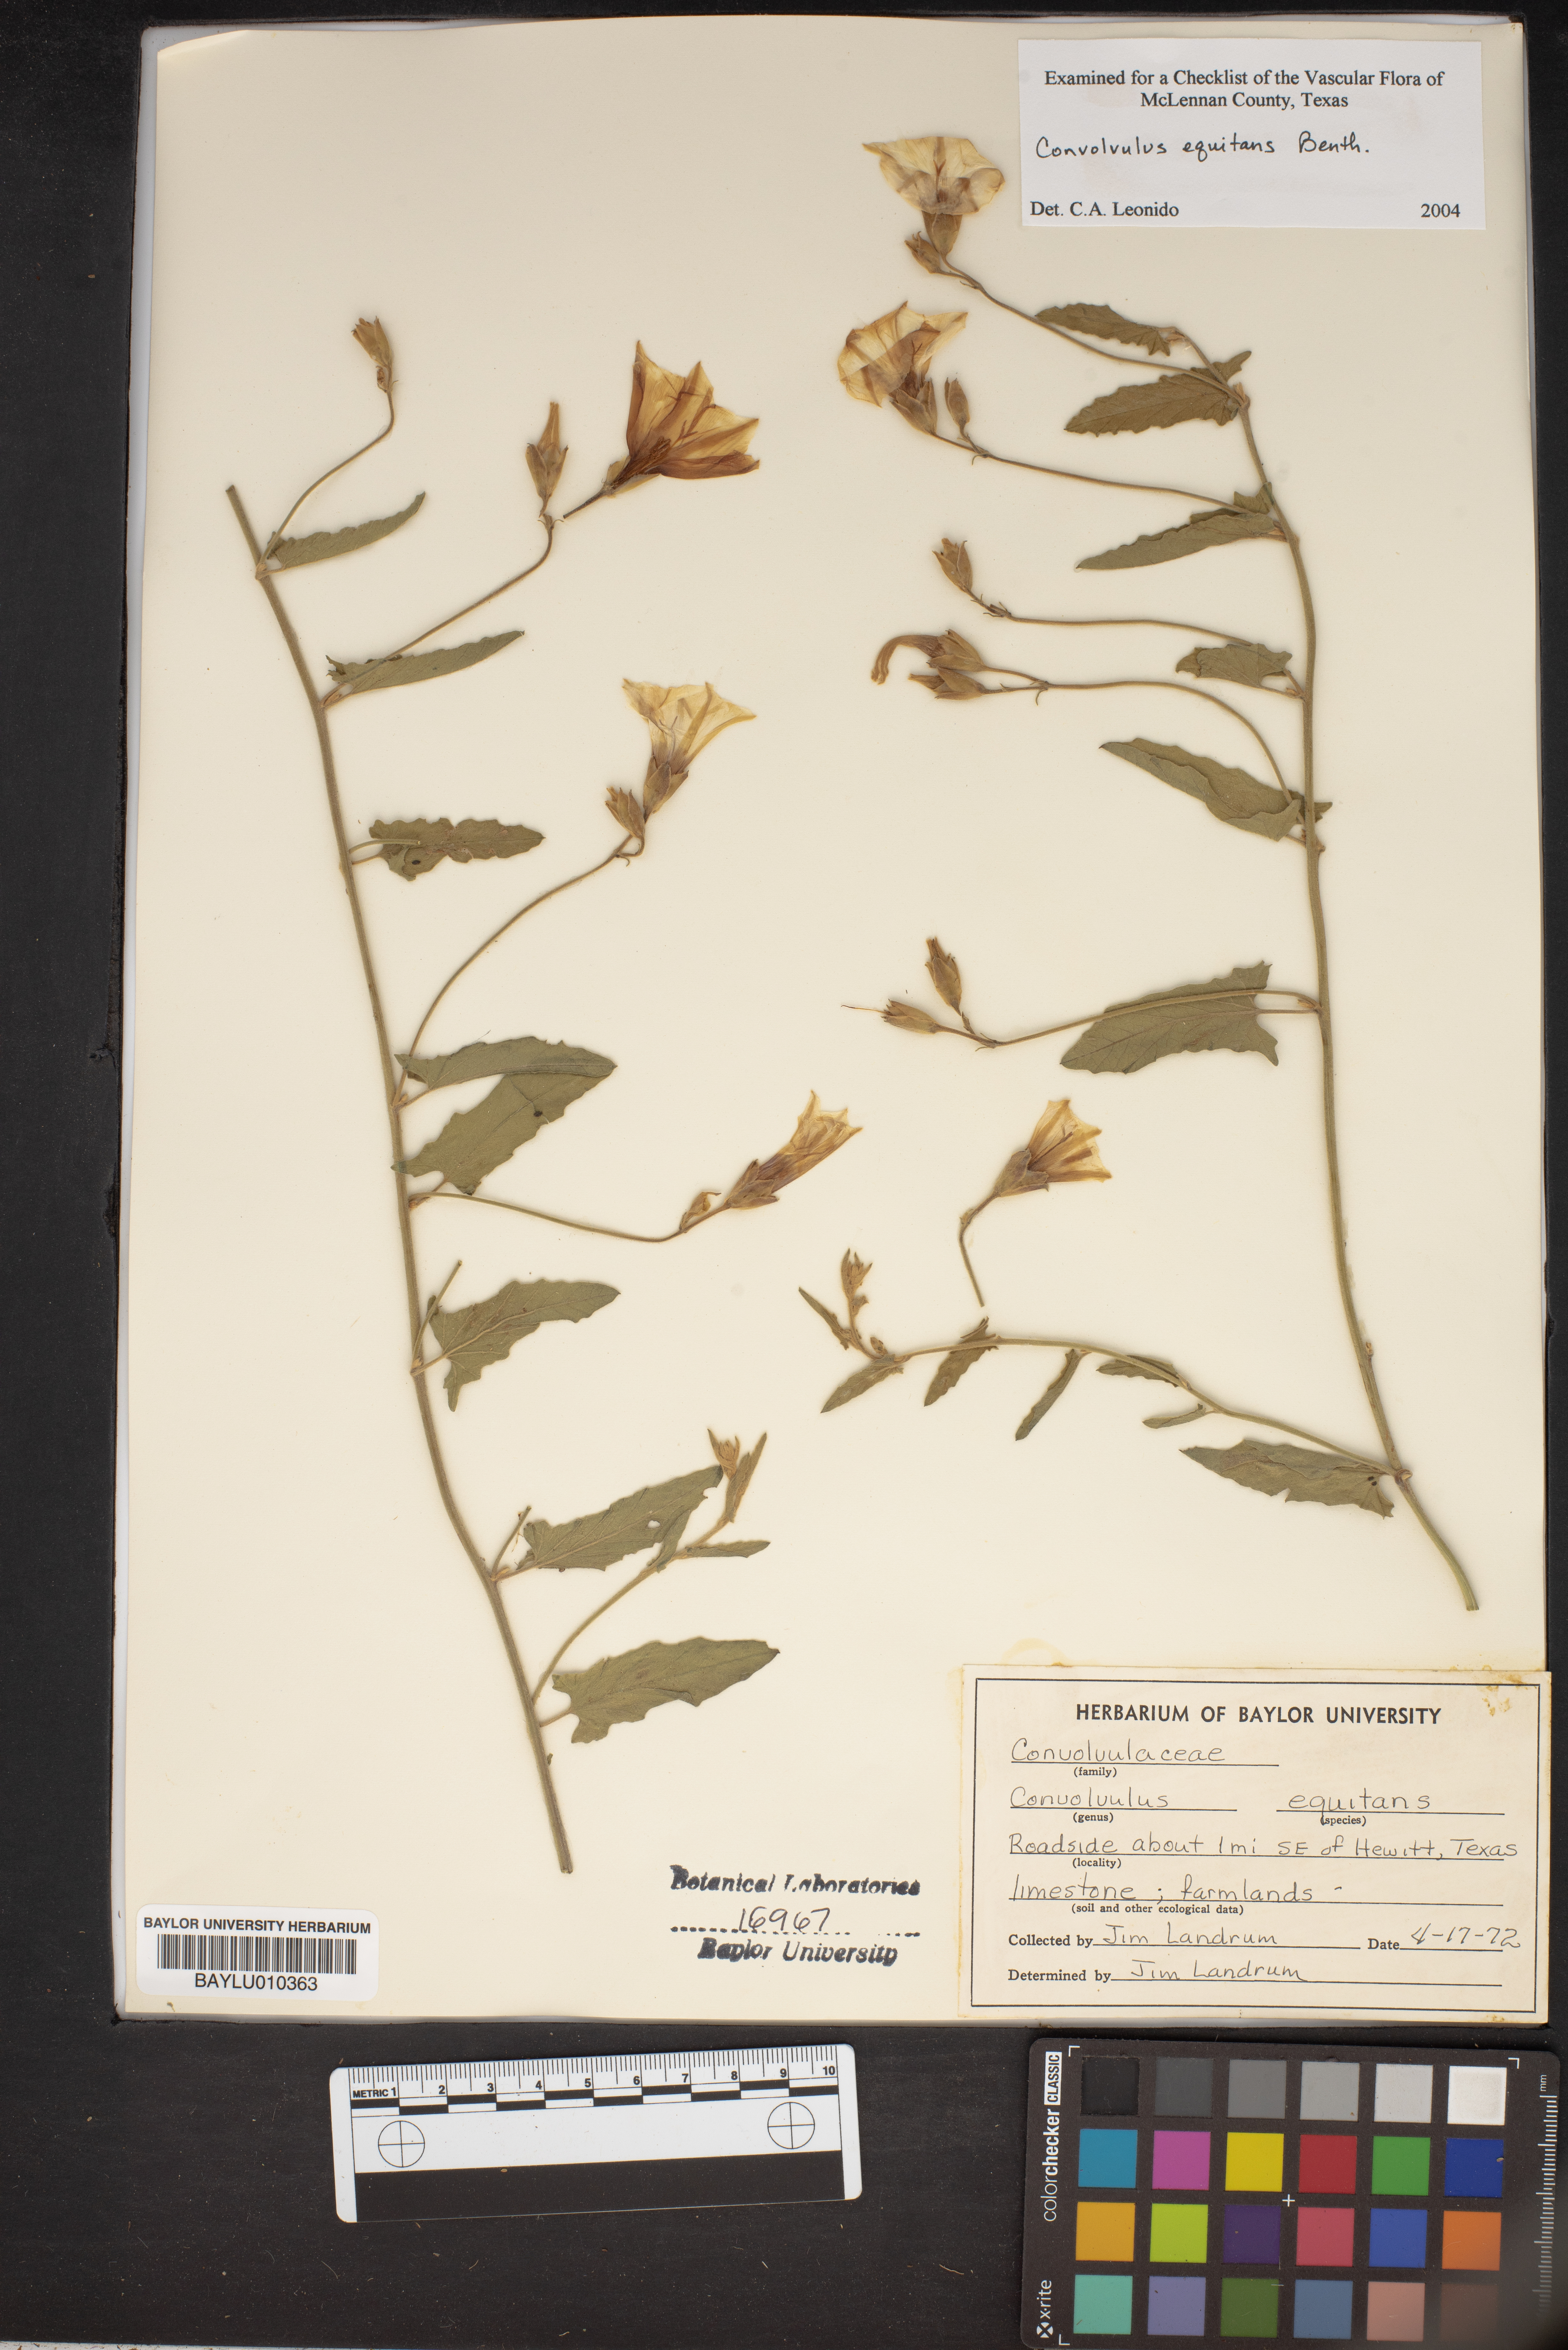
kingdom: Plantae
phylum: Tracheophyta
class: Magnoliopsida
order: Solanales
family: Convolvulaceae
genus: Convolvulus
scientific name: Convolvulus equitans
